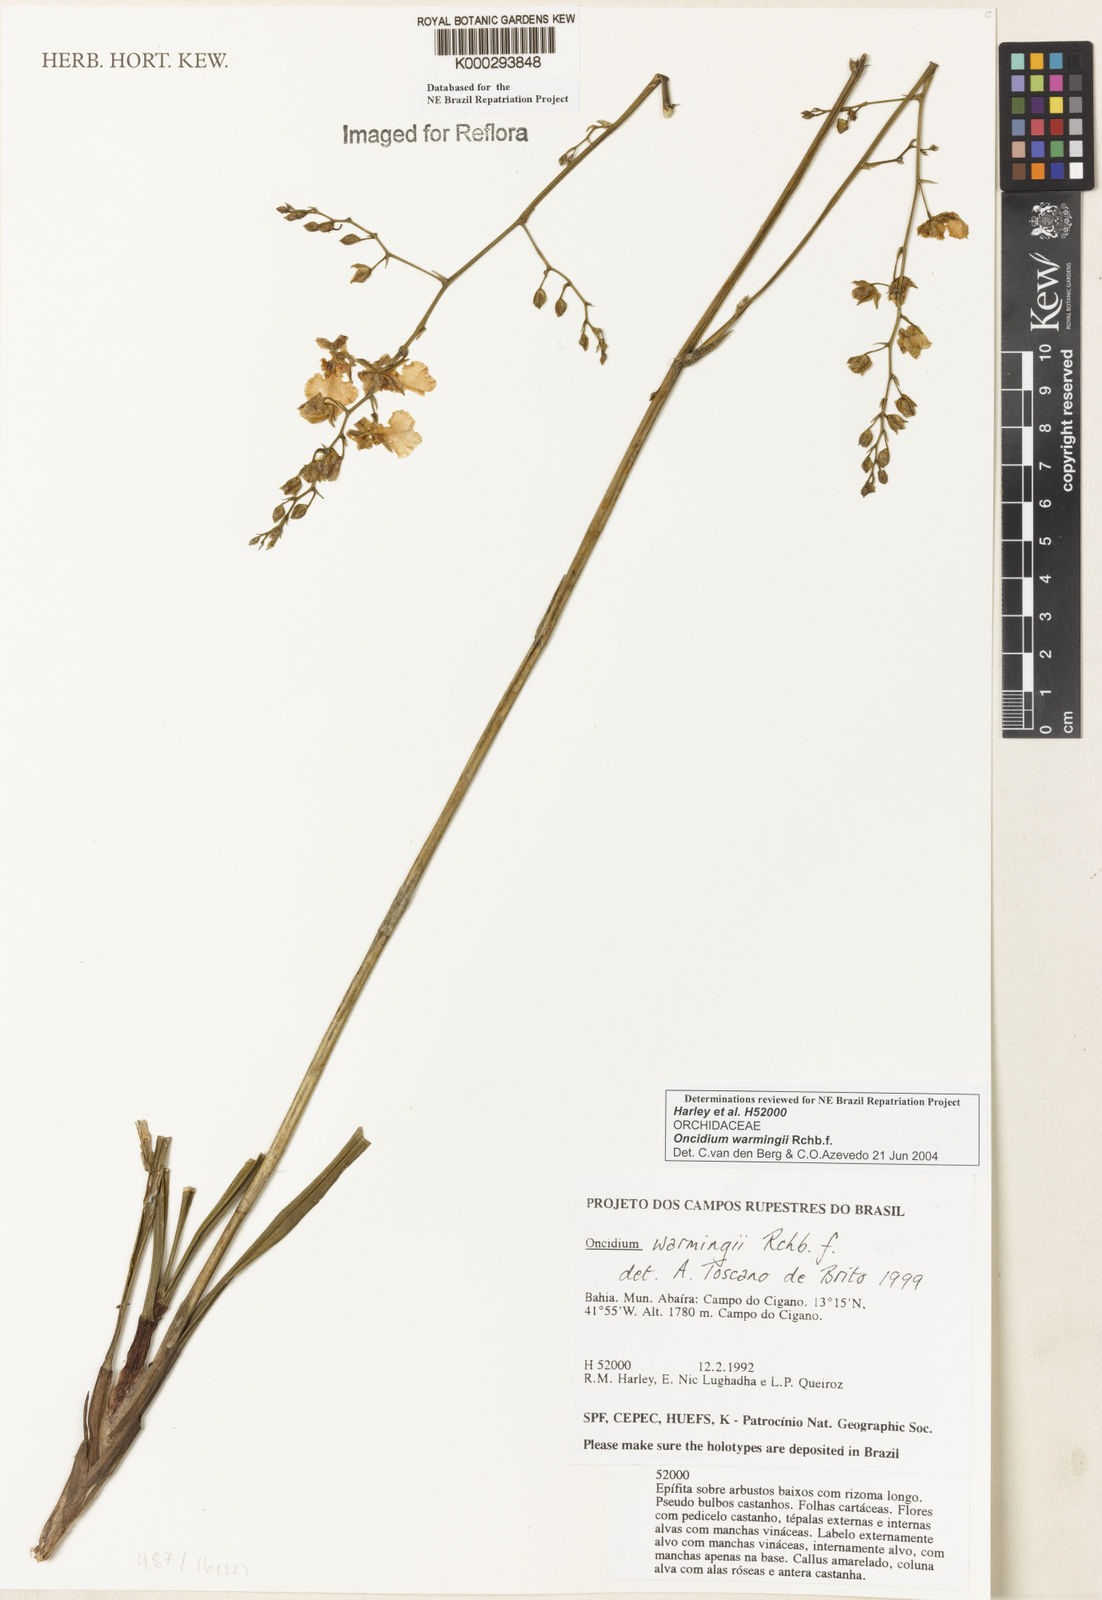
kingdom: Plantae
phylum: Tracheophyta
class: Liliopsida
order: Asparagales
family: Orchidaceae
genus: Gomesa
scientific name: Gomesa warmingii
